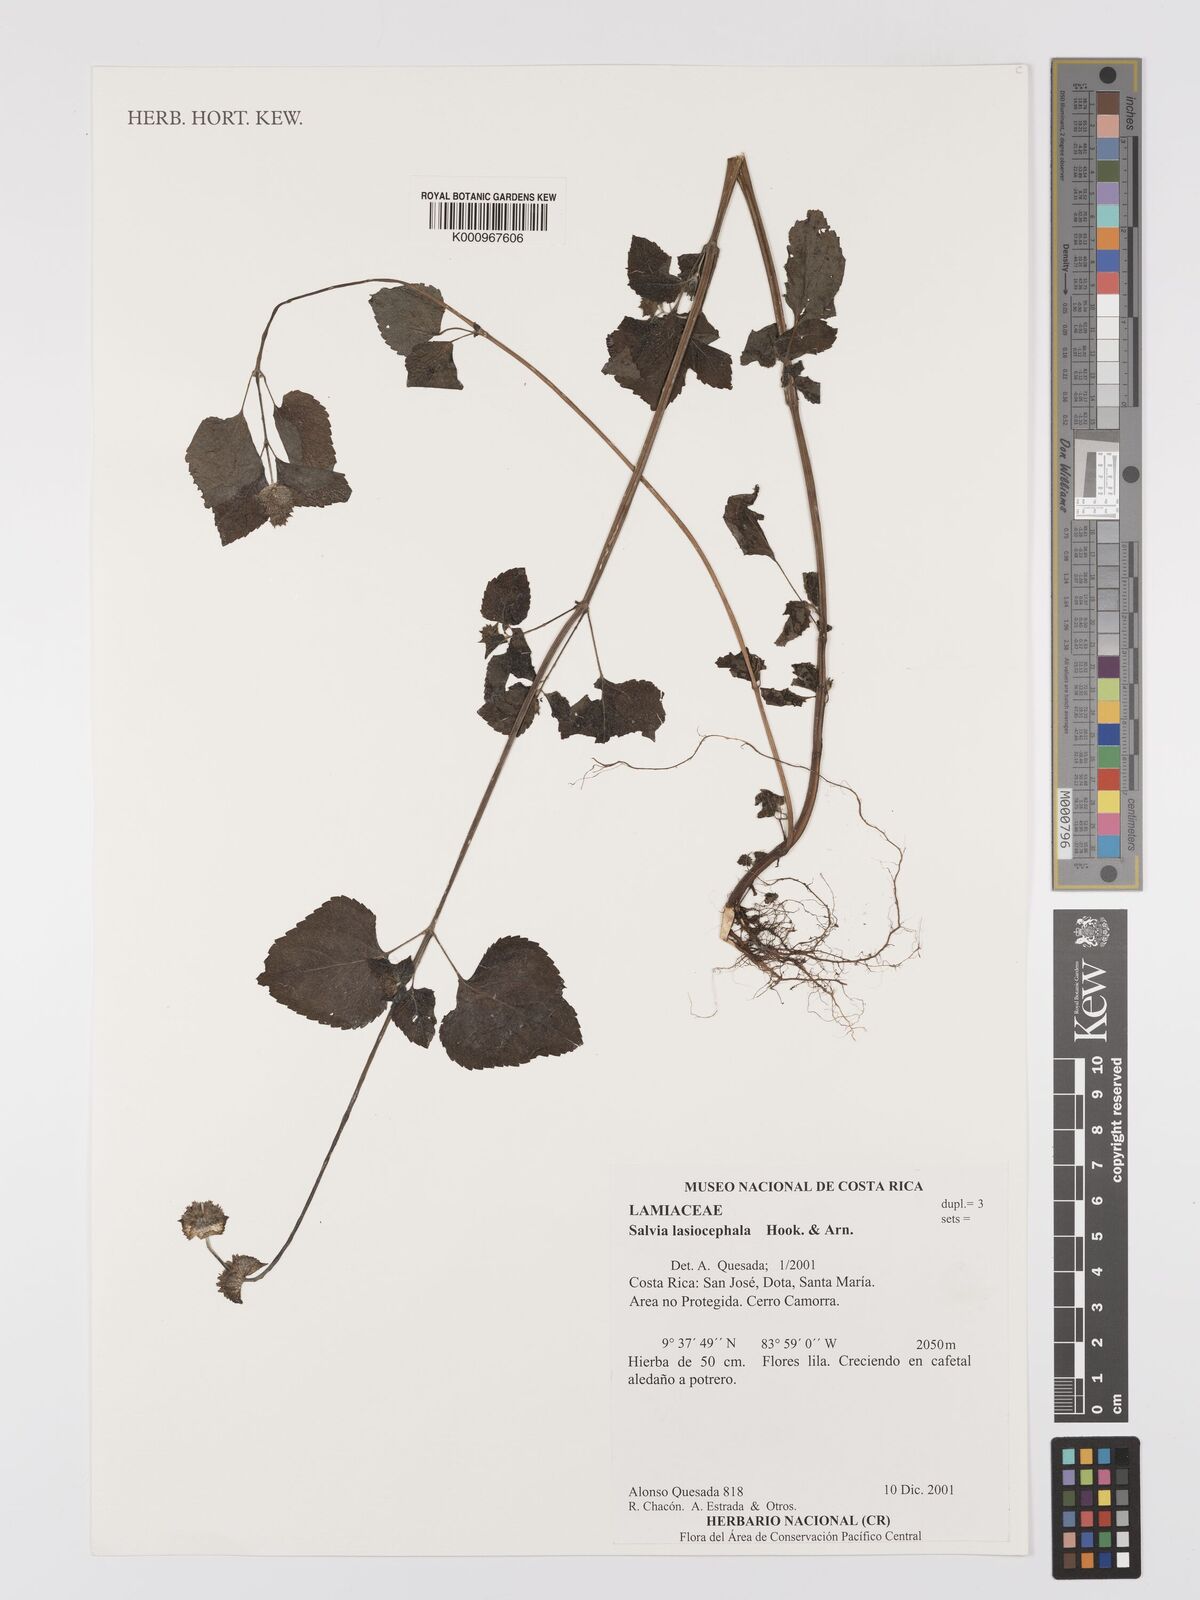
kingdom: Plantae
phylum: Tracheophyta
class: Magnoliopsida
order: Lamiales
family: Lamiaceae
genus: Salvia
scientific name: Salvia lasiocephala
